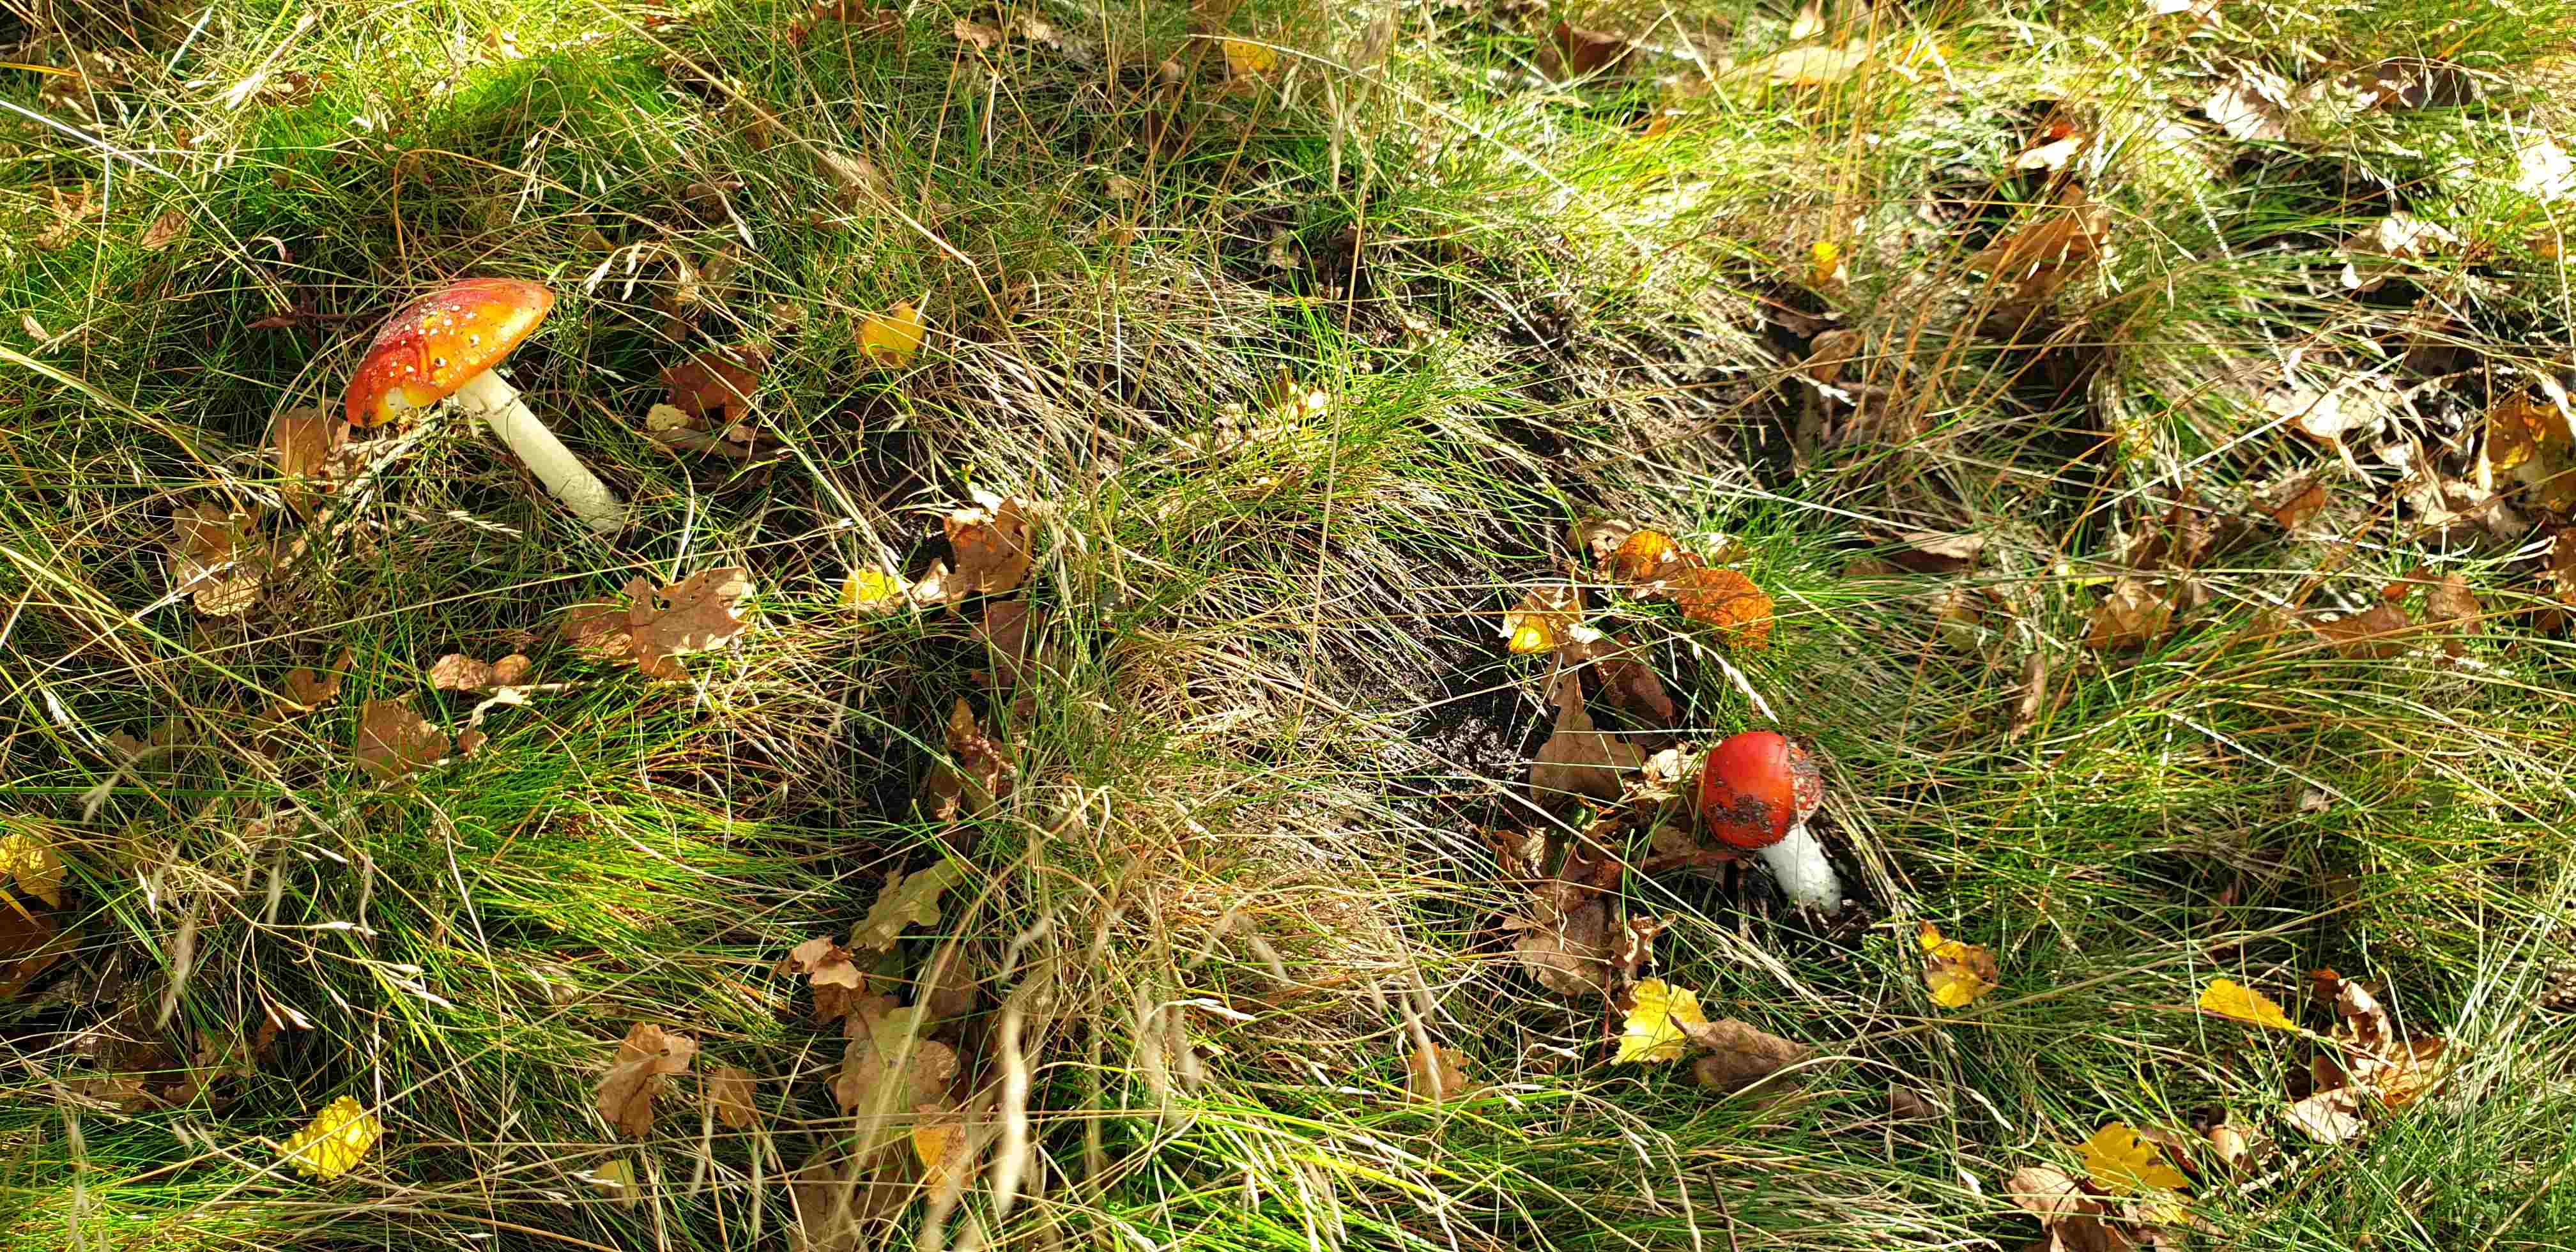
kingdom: Fungi
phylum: Basidiomycota
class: Agaricomycetes
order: Agaricales
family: Amanitaceae
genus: Amanita
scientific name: Amanita muscaria
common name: rød fluesvamp
